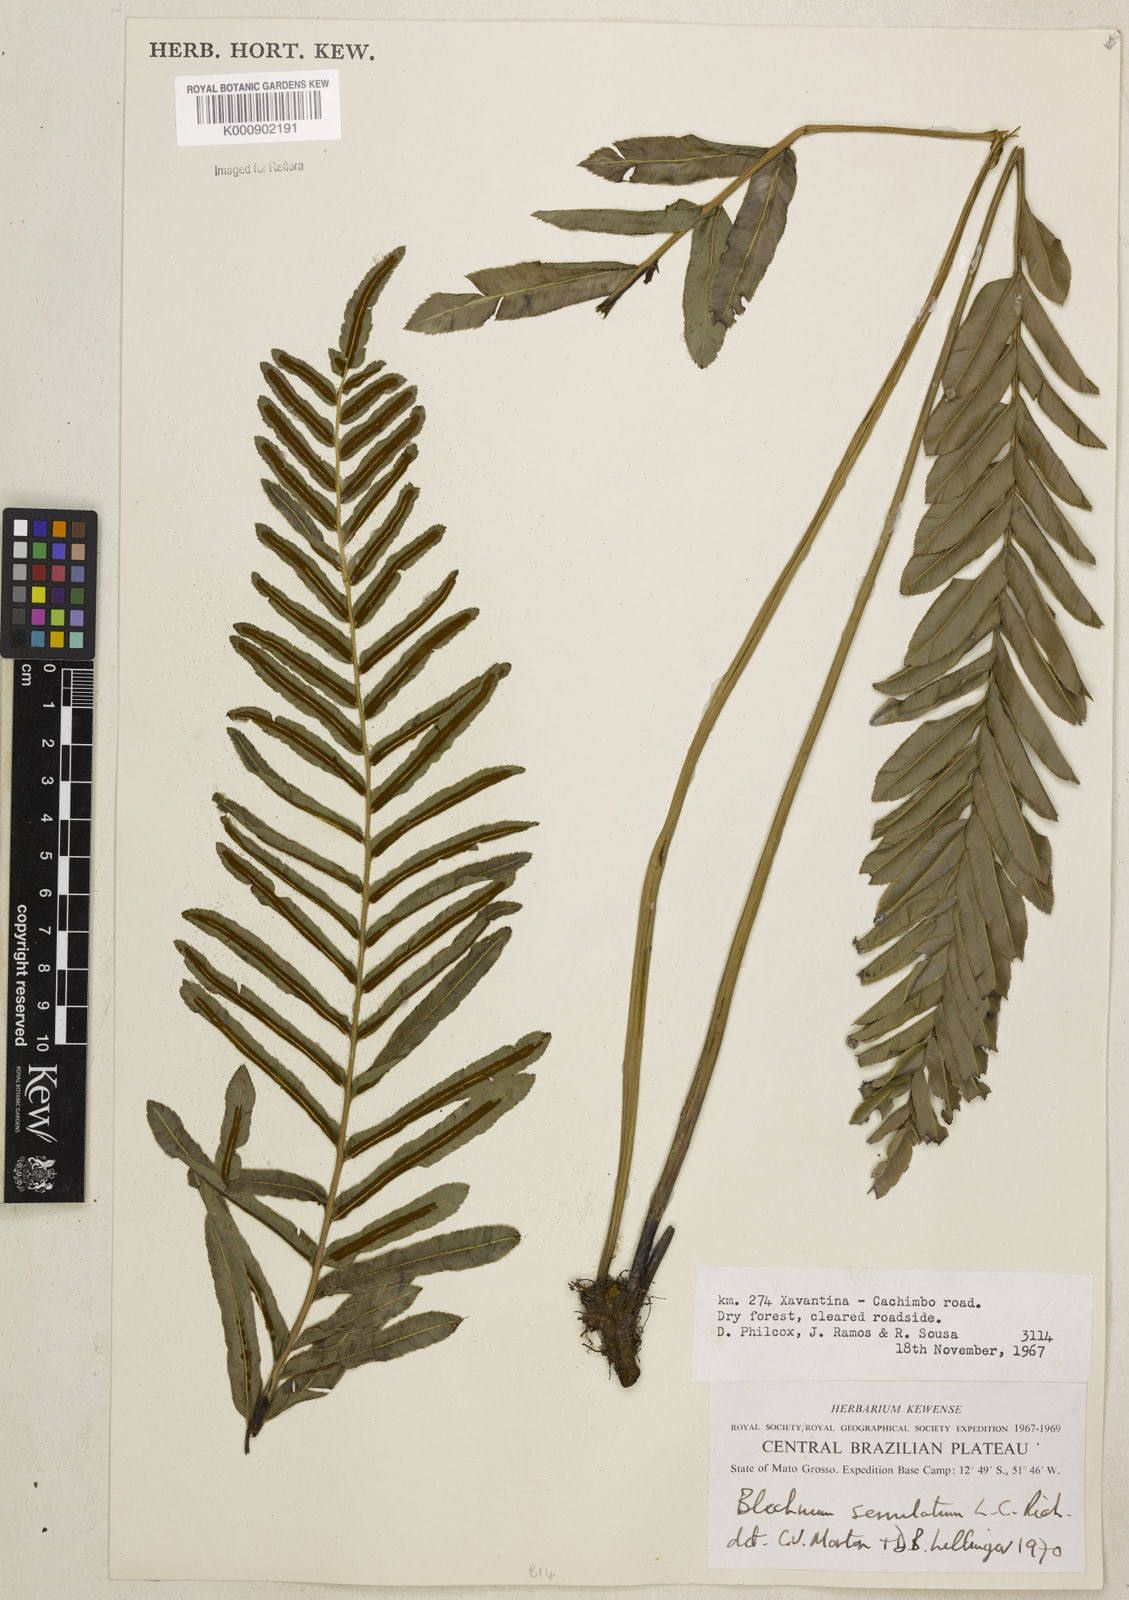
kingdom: Plantae
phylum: Tracheophyta
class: Polypodiopsida
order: Polypodiales
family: Blechnaceae
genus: Telmatoblechnum
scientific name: Telmatoblechnum serrulatum
